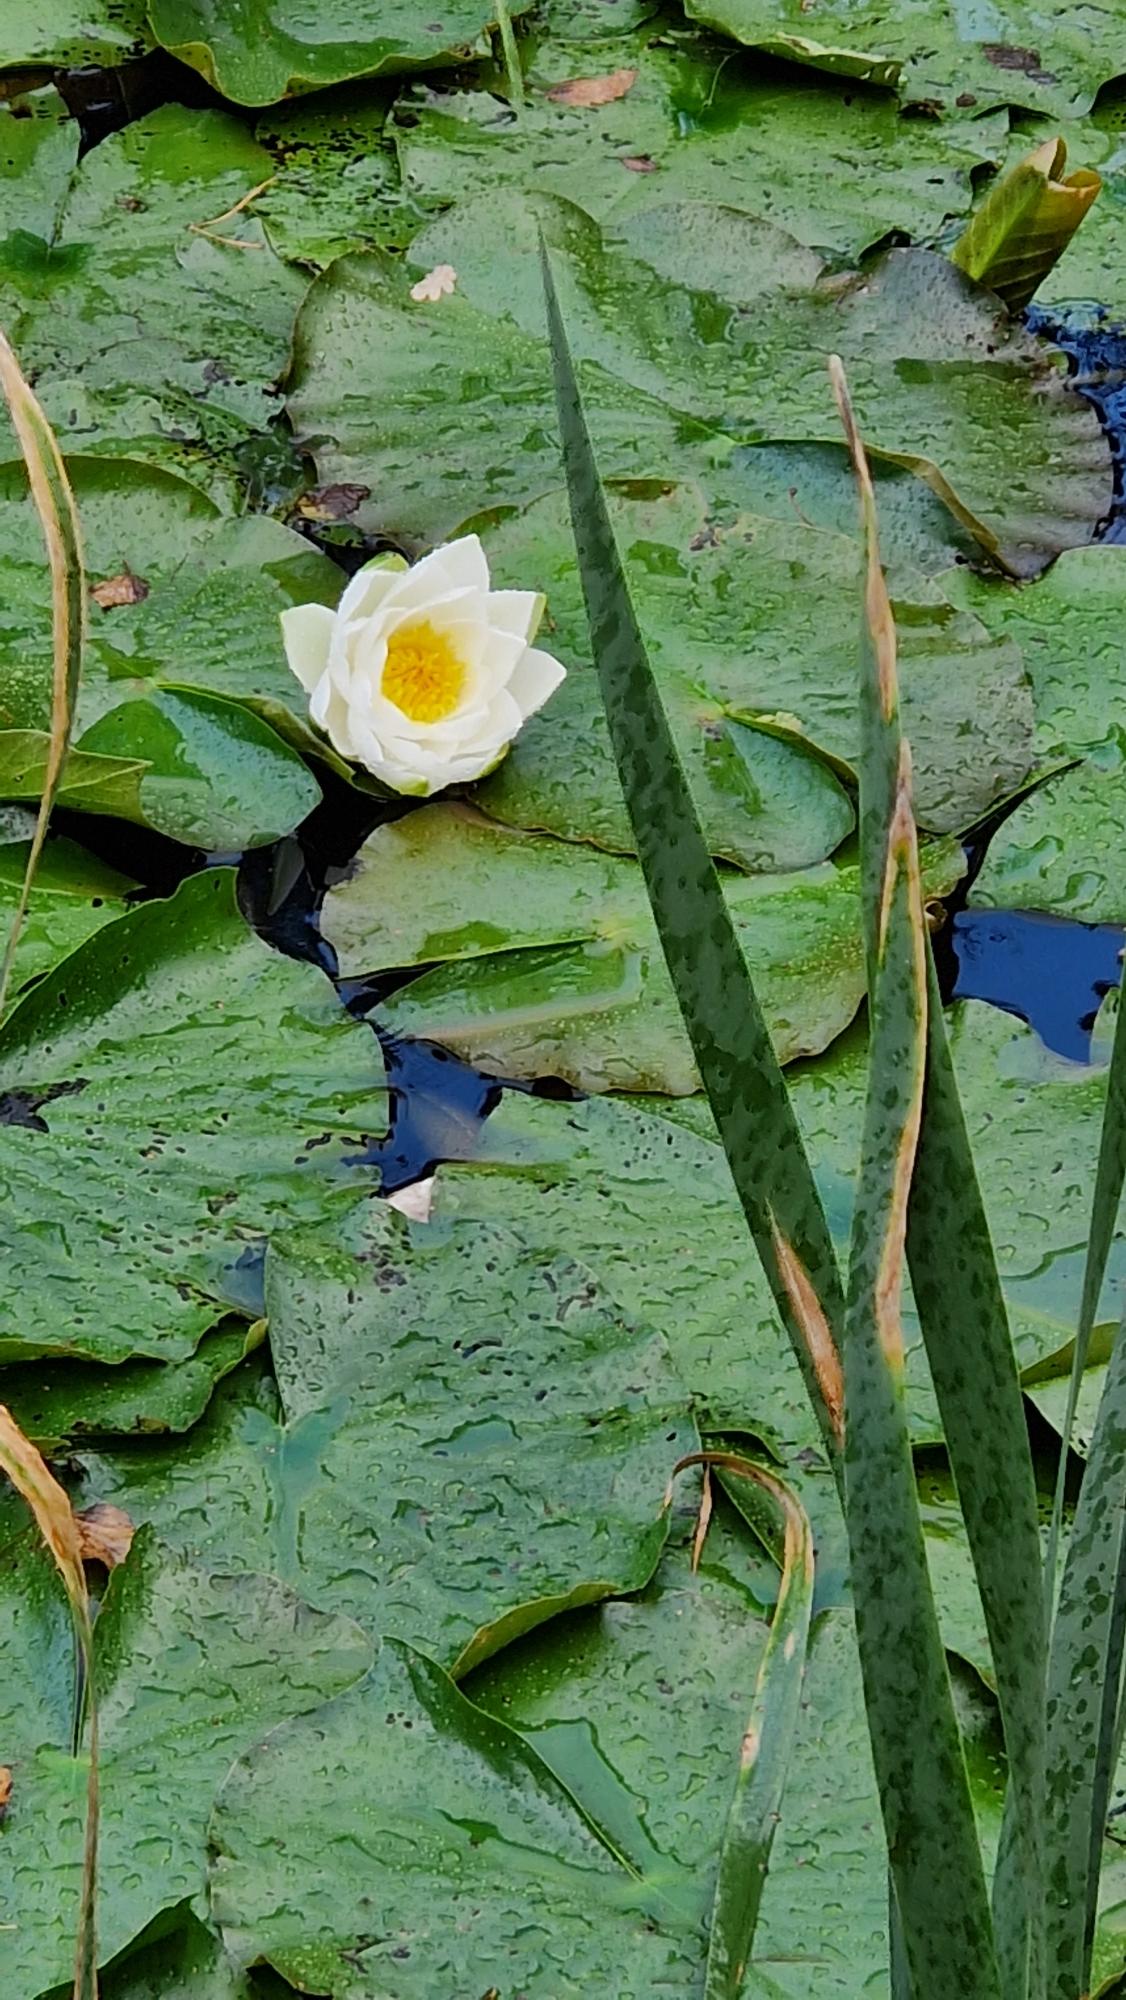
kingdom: Plantae
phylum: Tracheophyta
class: Magnoliopsida
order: Nymphaeales
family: Nymphaeaceae
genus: Nymphaea
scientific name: Nymphaea alba
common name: Hvid åkande
